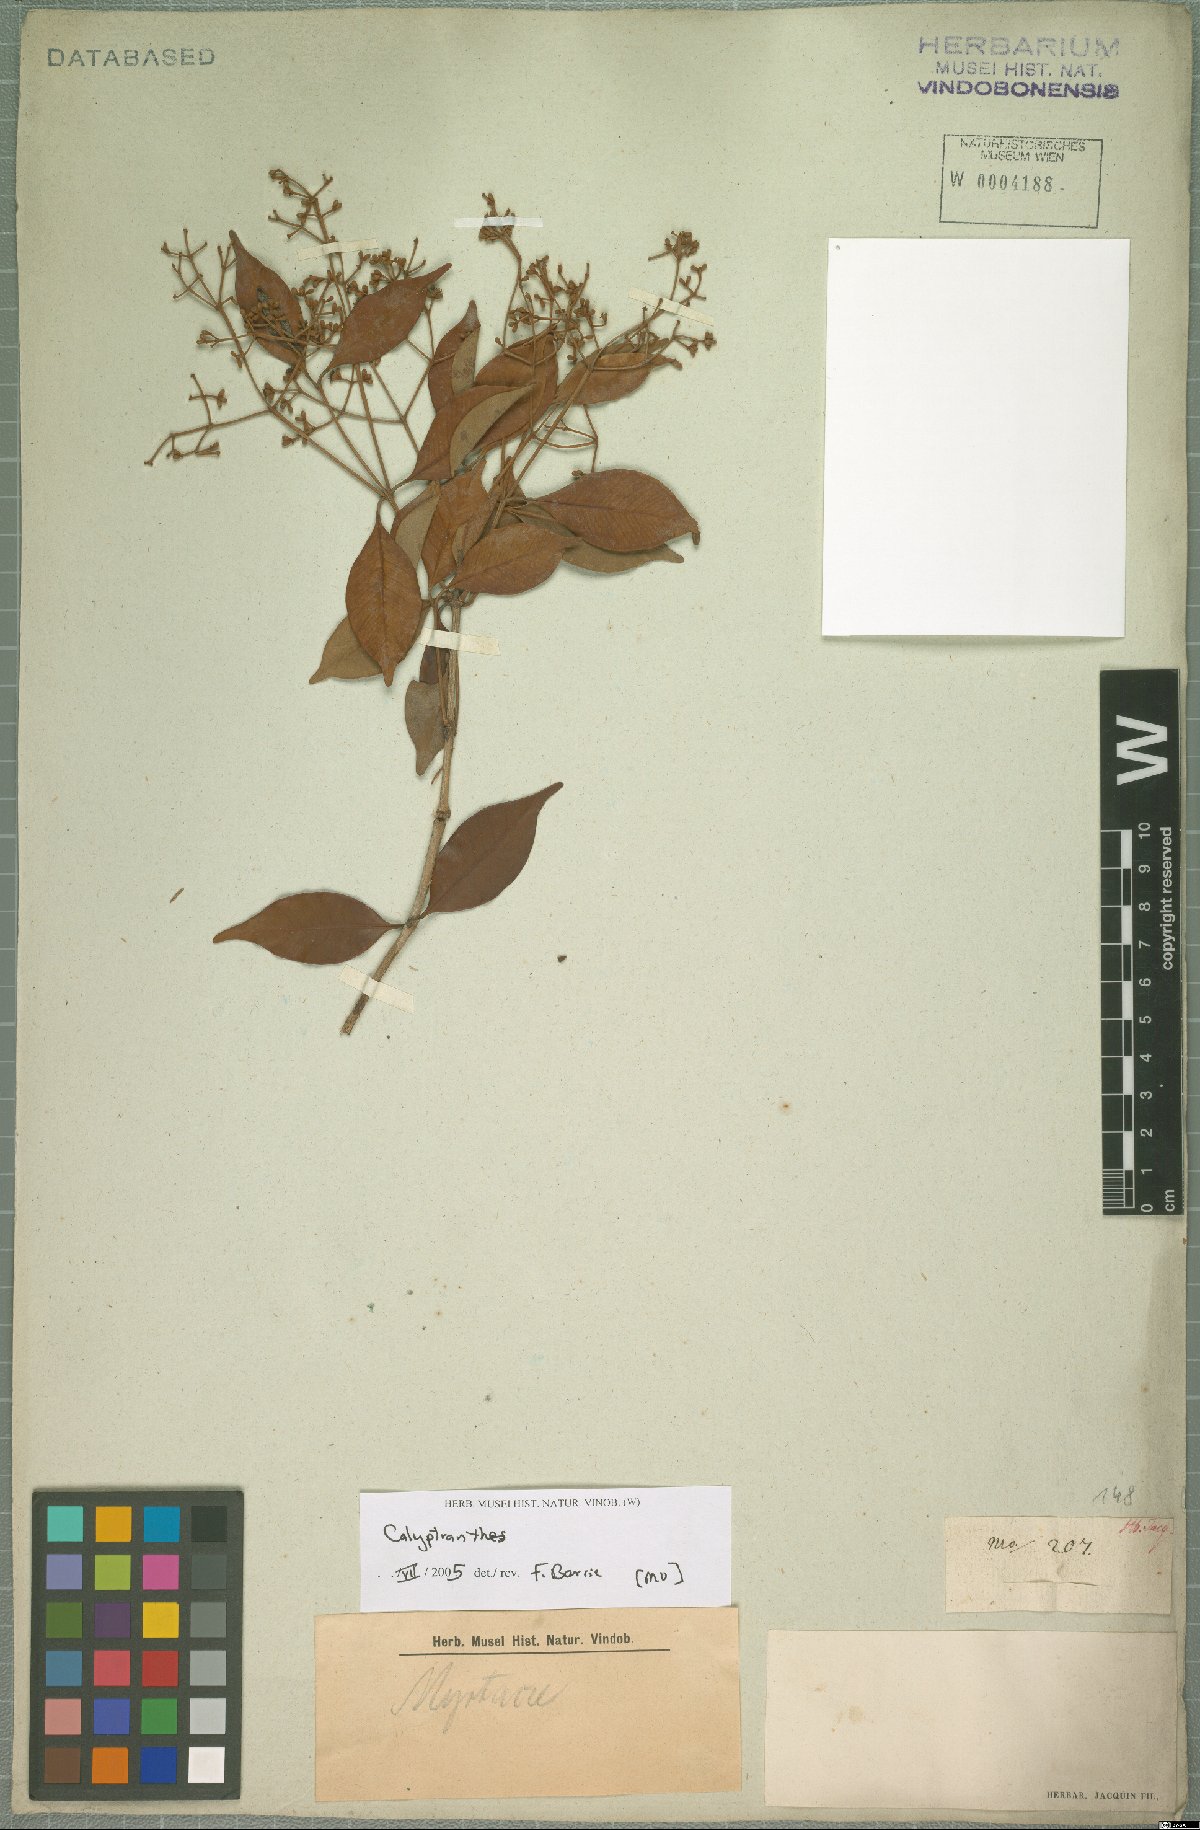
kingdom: Plantae
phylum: Tracheophyta
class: Magnoliopsida
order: Myrtales
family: Myrtaceae
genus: Calyptranthes
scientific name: Calyptranthes
